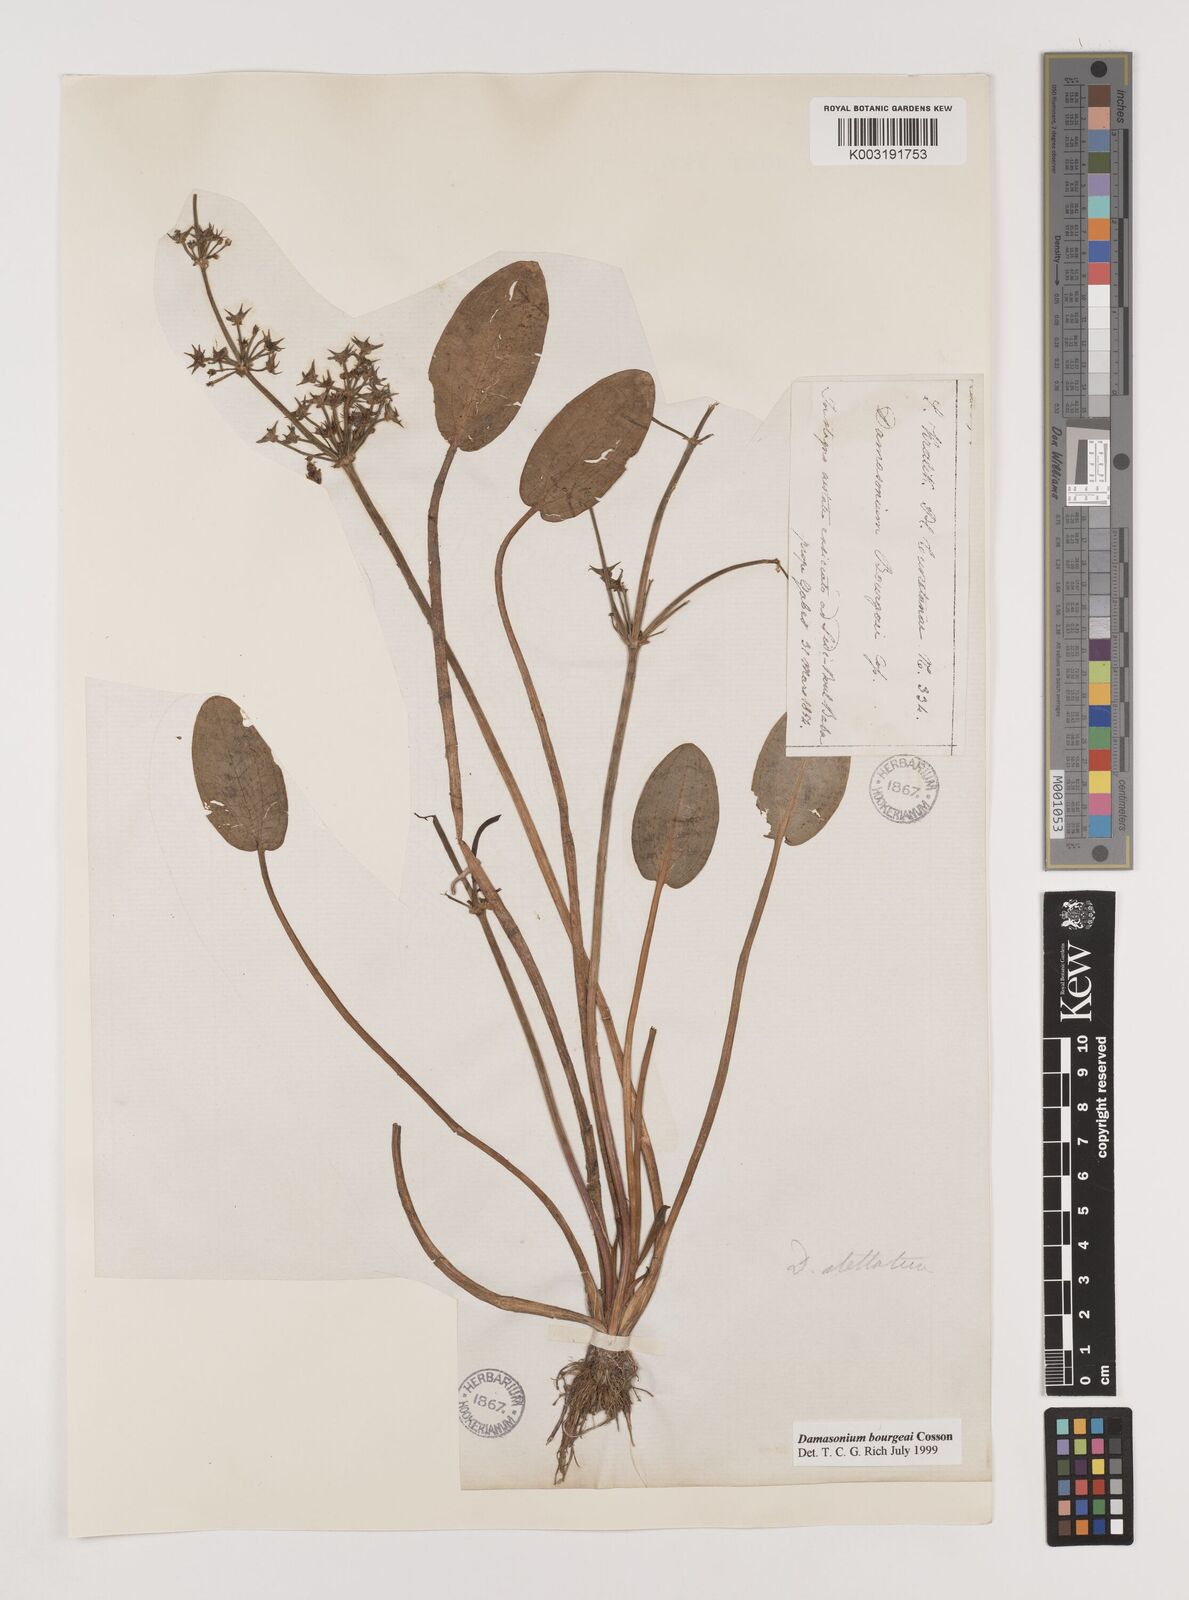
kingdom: Plantae
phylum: Tracheophyta
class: Liliopsida
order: Alismatales
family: Alismataceae
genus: Damasonium
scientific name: Damasonium bourgaei
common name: Starfruit
